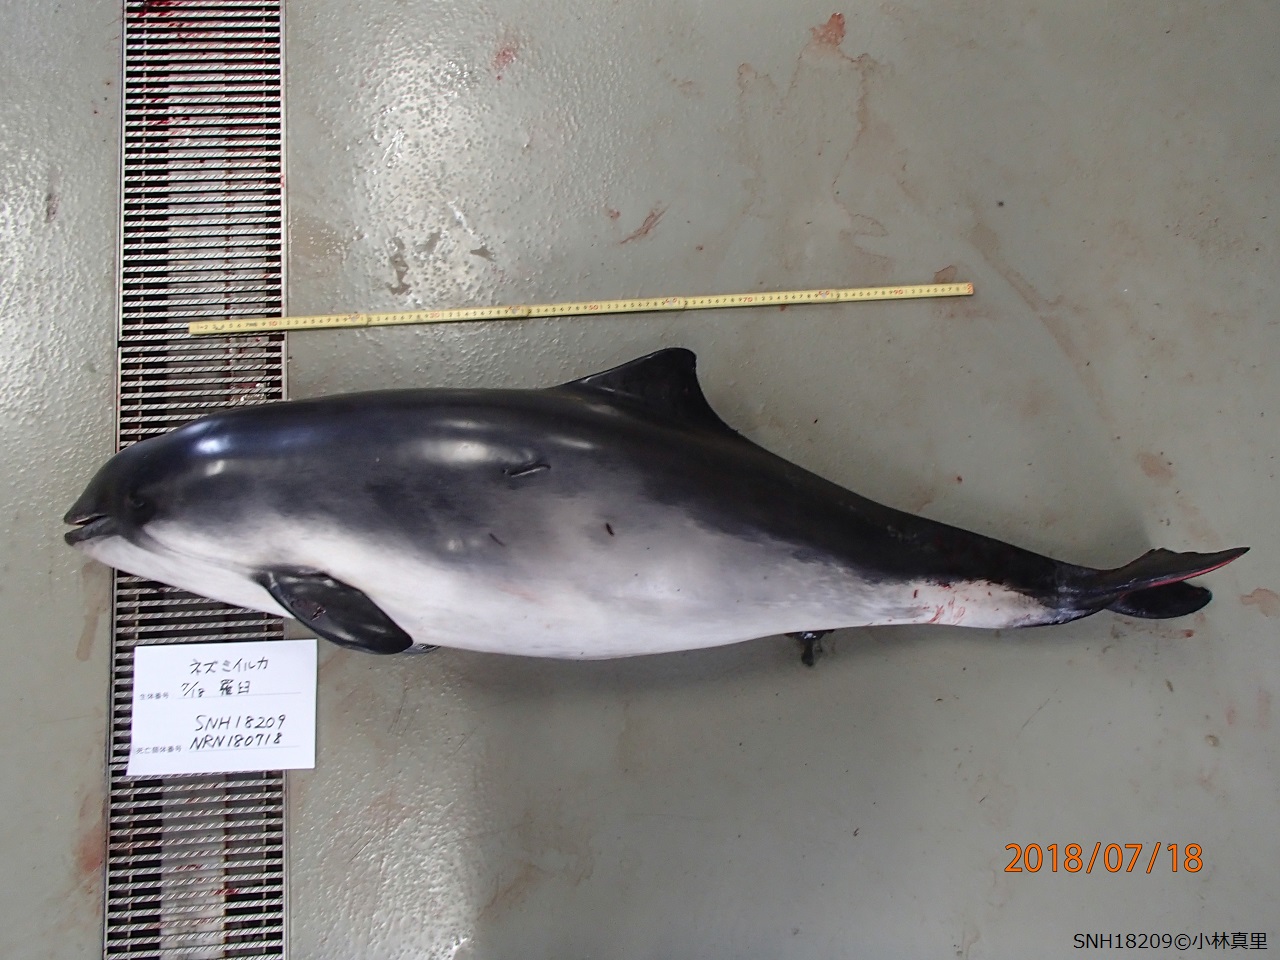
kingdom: Animalia
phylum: Chordata
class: Mammalia
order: Cetacea
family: Phocoenidae
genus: Phocoena
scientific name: Phocoena phocoena
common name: Harbour porpoise
